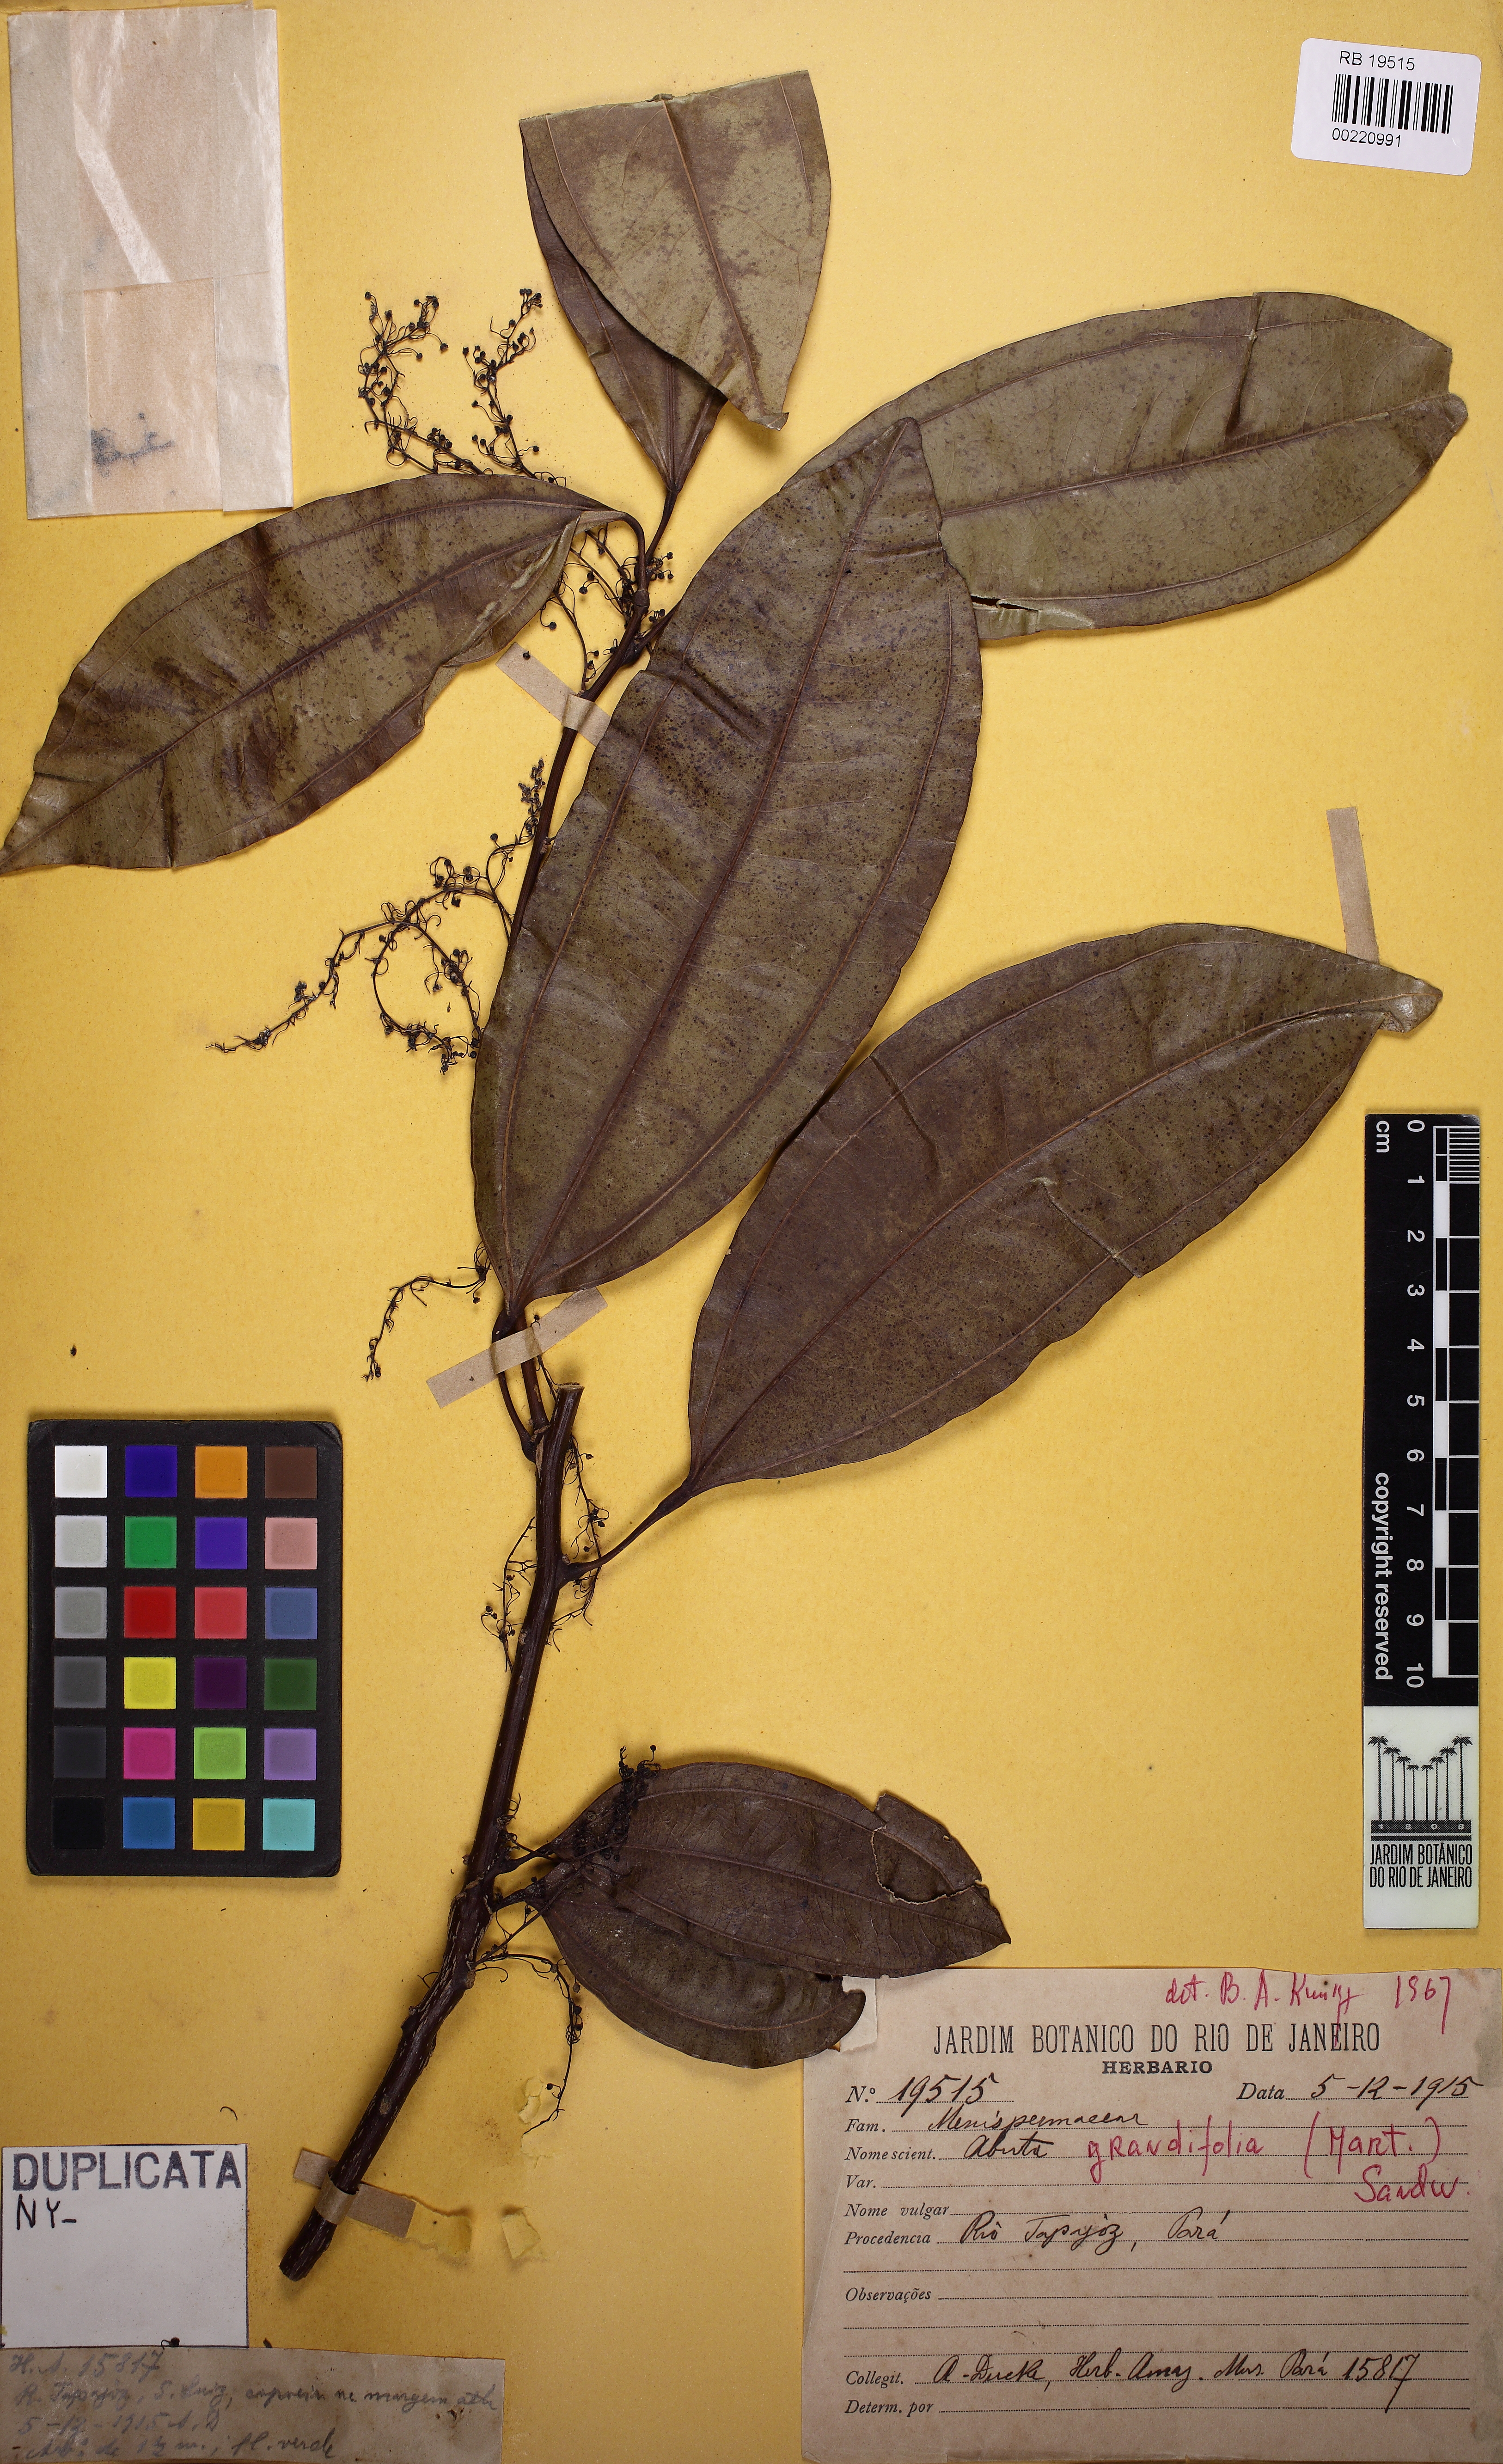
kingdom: Plantae
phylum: Tracheophyta
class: Magnoliopsida
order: Ranunculales
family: Menispermaceae
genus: Abuta
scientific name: Abuta grandifolia
